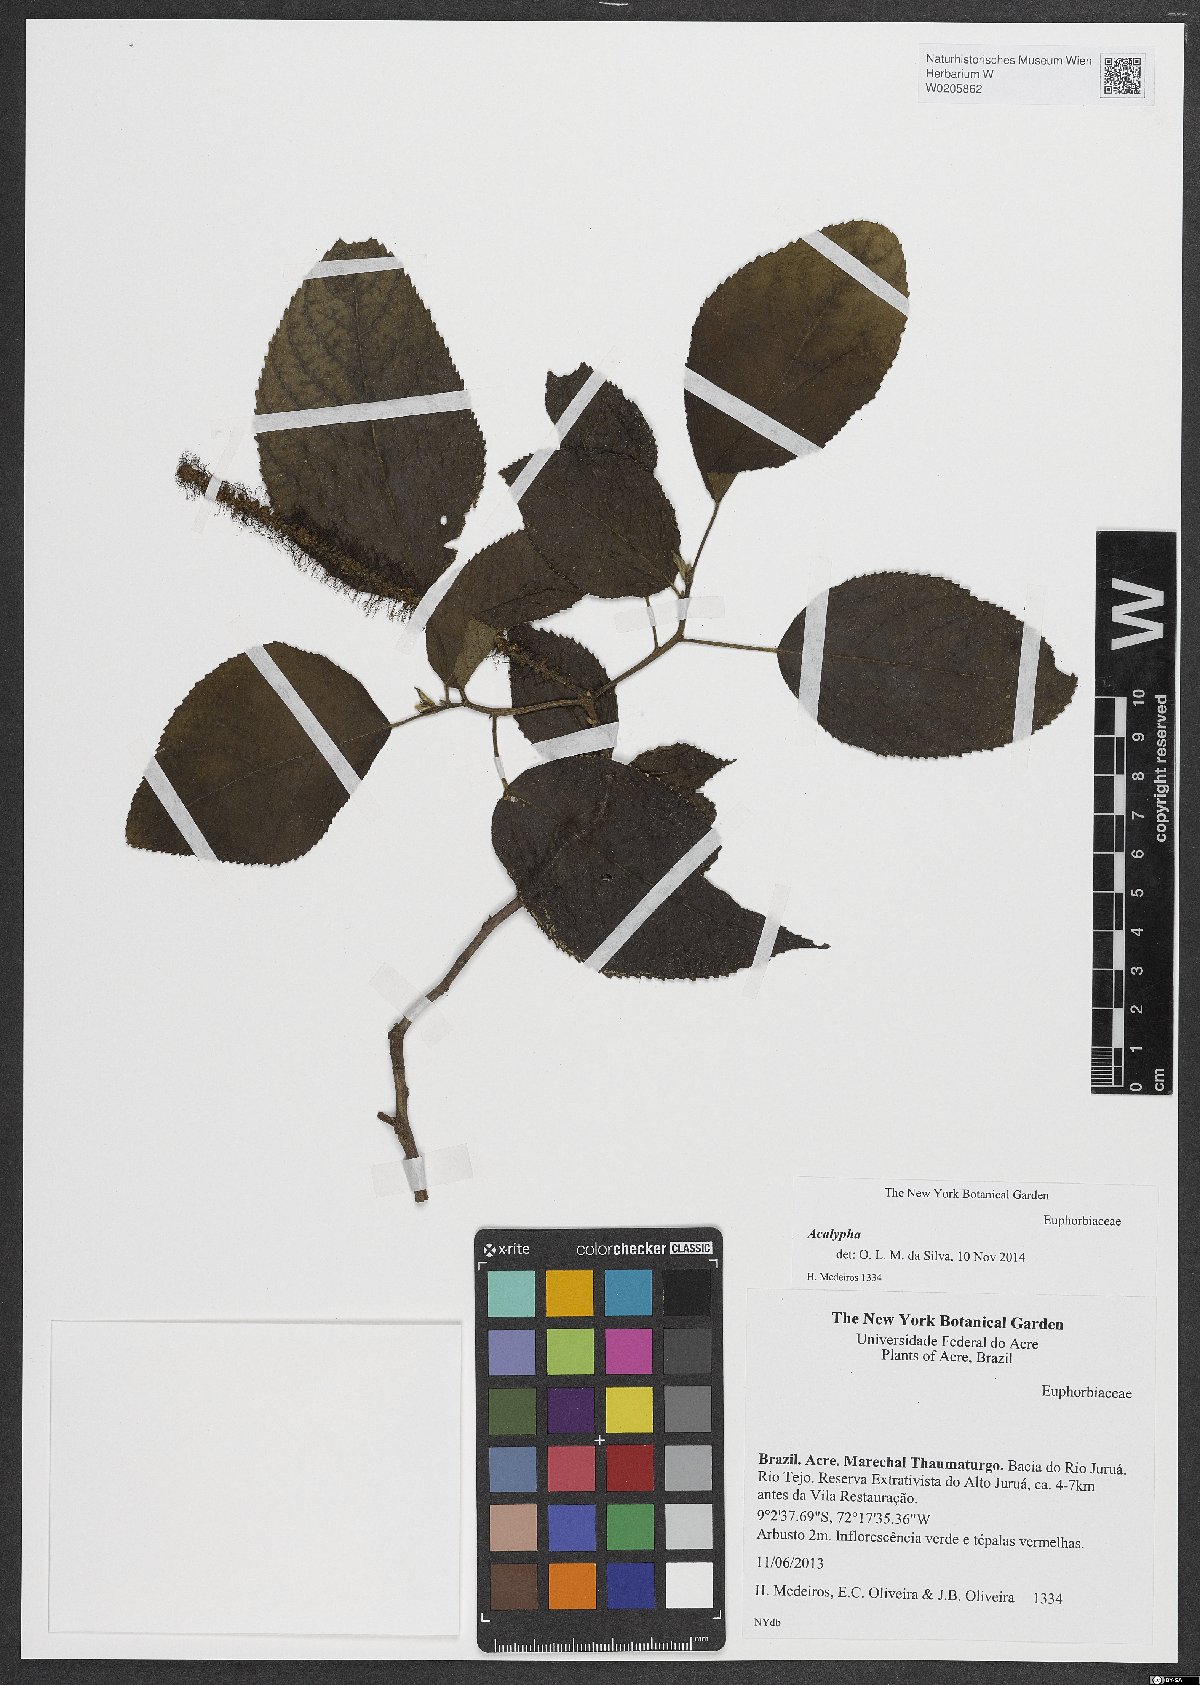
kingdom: Plantae
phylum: Tracheophyta
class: Magnoliopsida
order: Malpighiales
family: Euphorbiaceae
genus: Acalypha
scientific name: Acalypha
